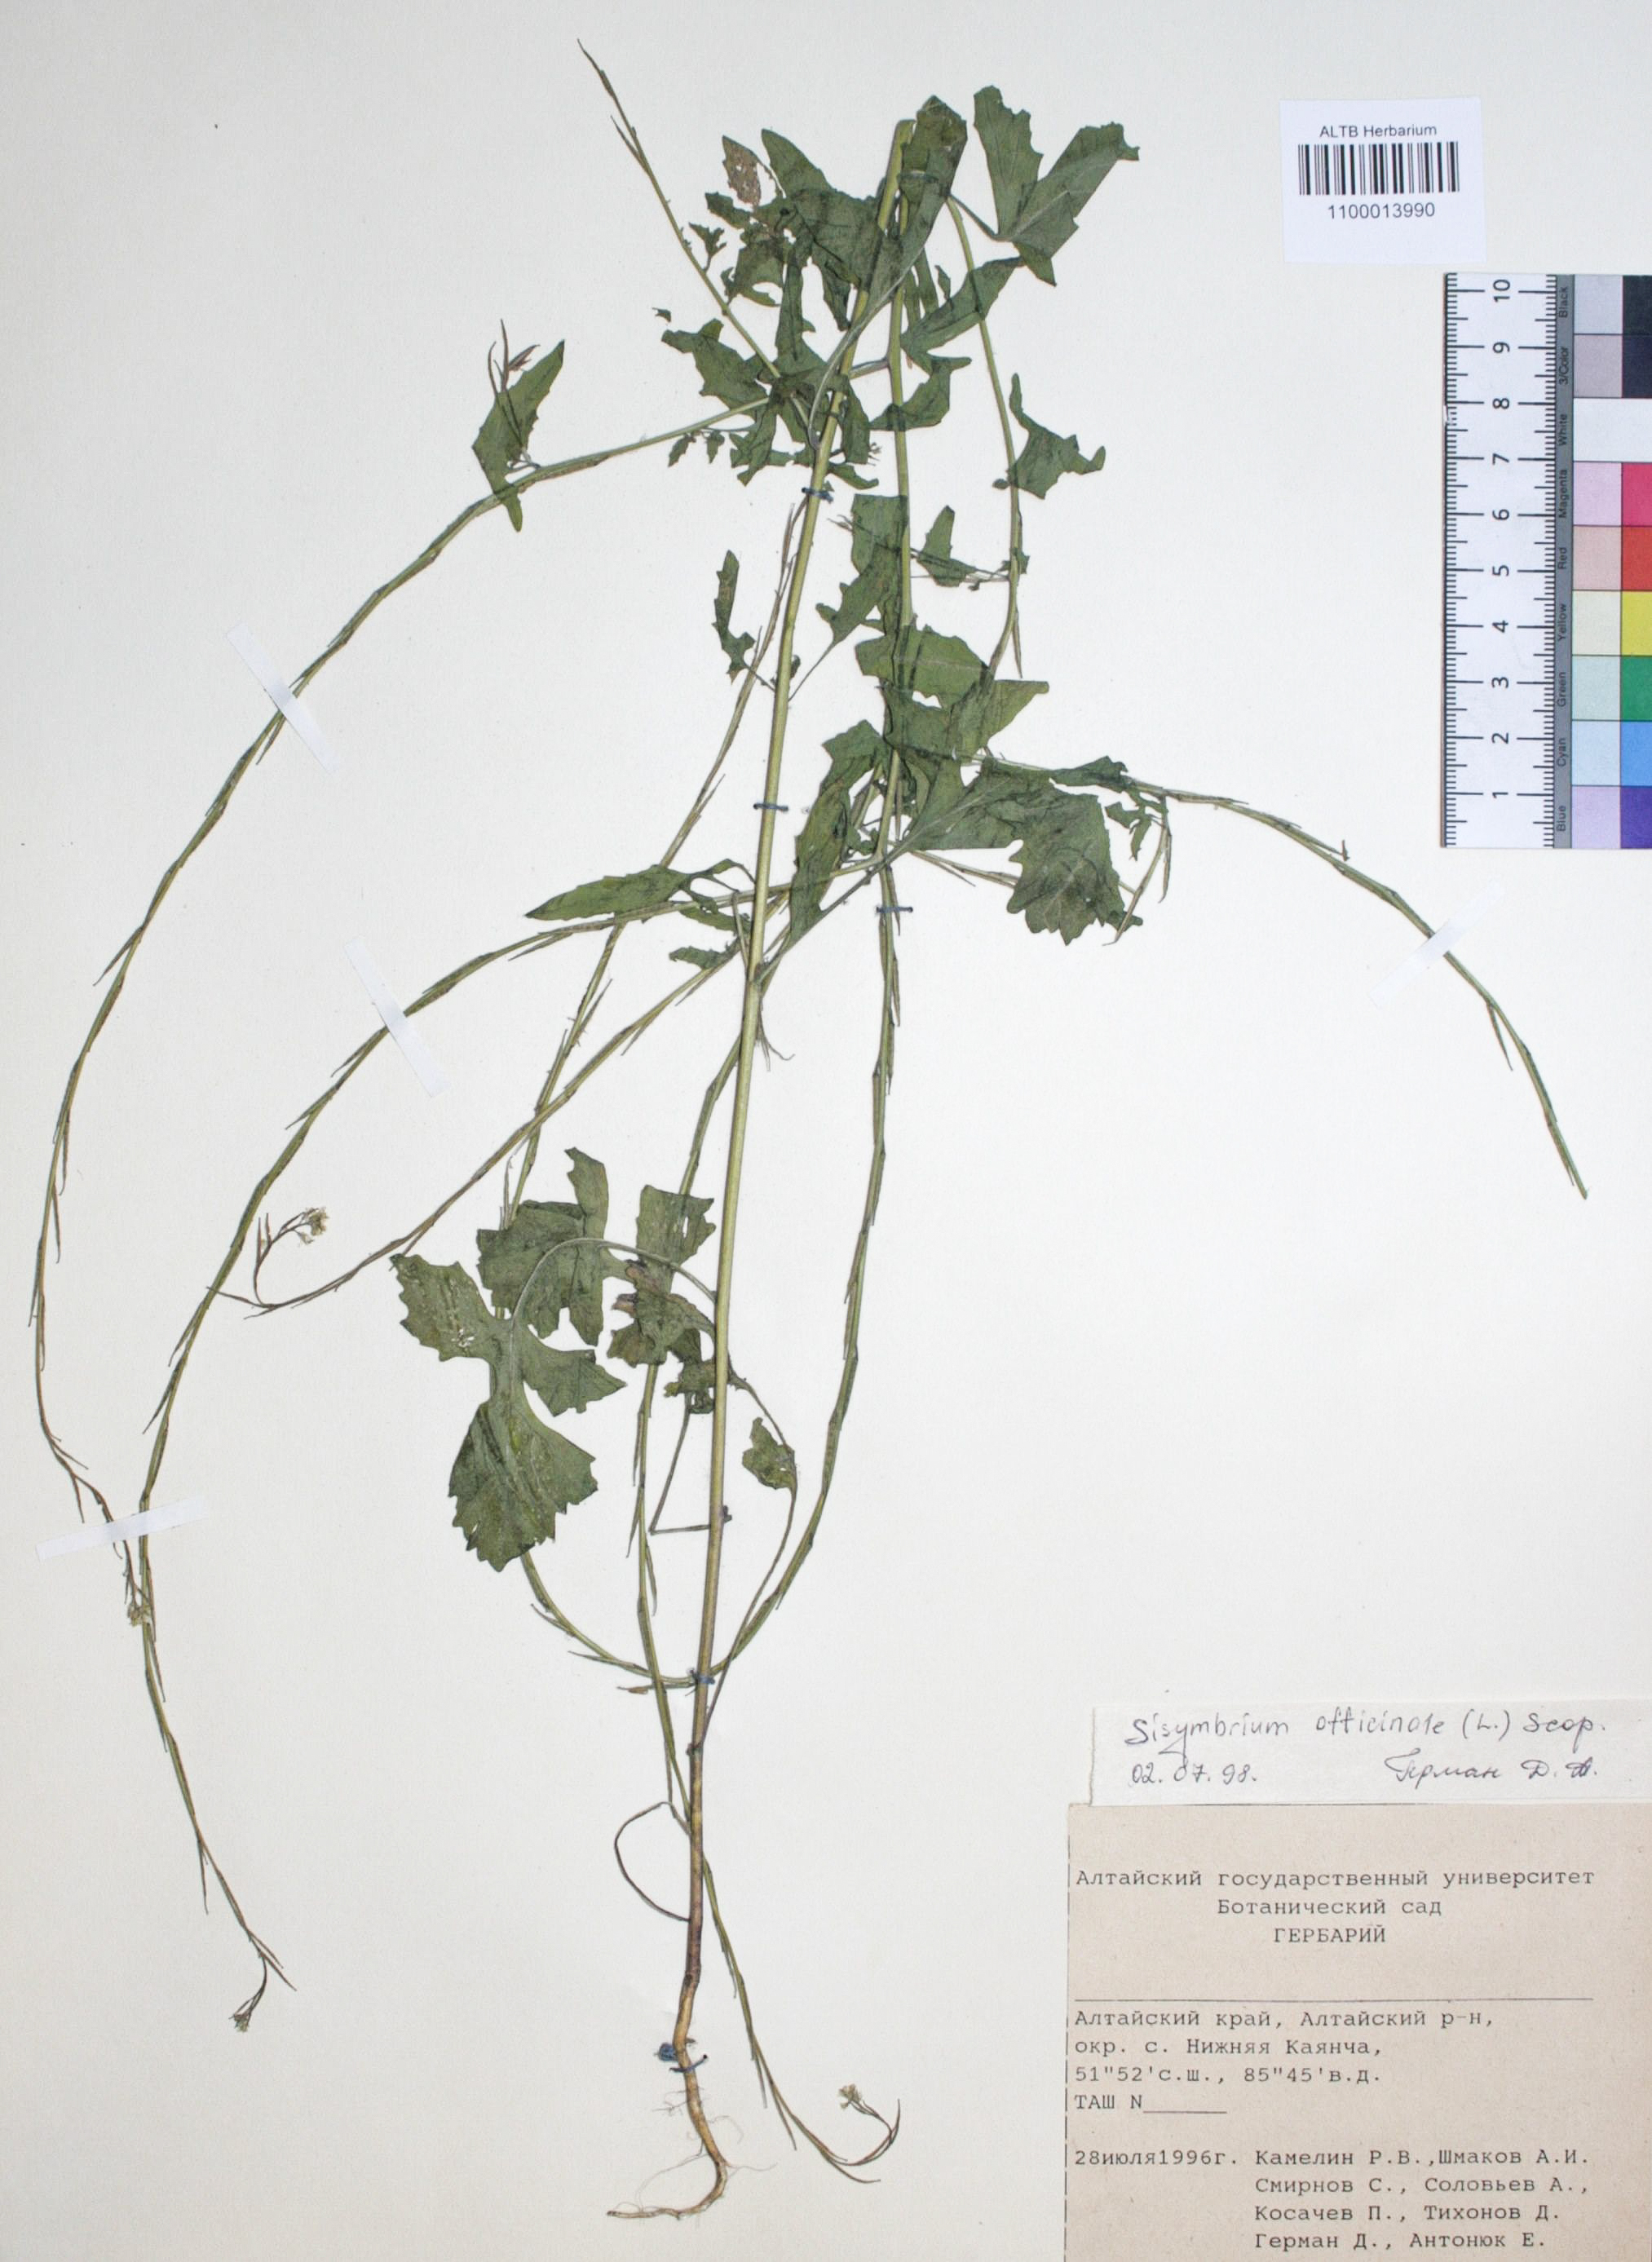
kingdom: Plantae
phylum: Tracheophyta
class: Magnoliopsida
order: Brassicales
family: Brassicaceae
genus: Sisymbrium
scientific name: Sisymbrium officinale
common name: Hedge mustard
